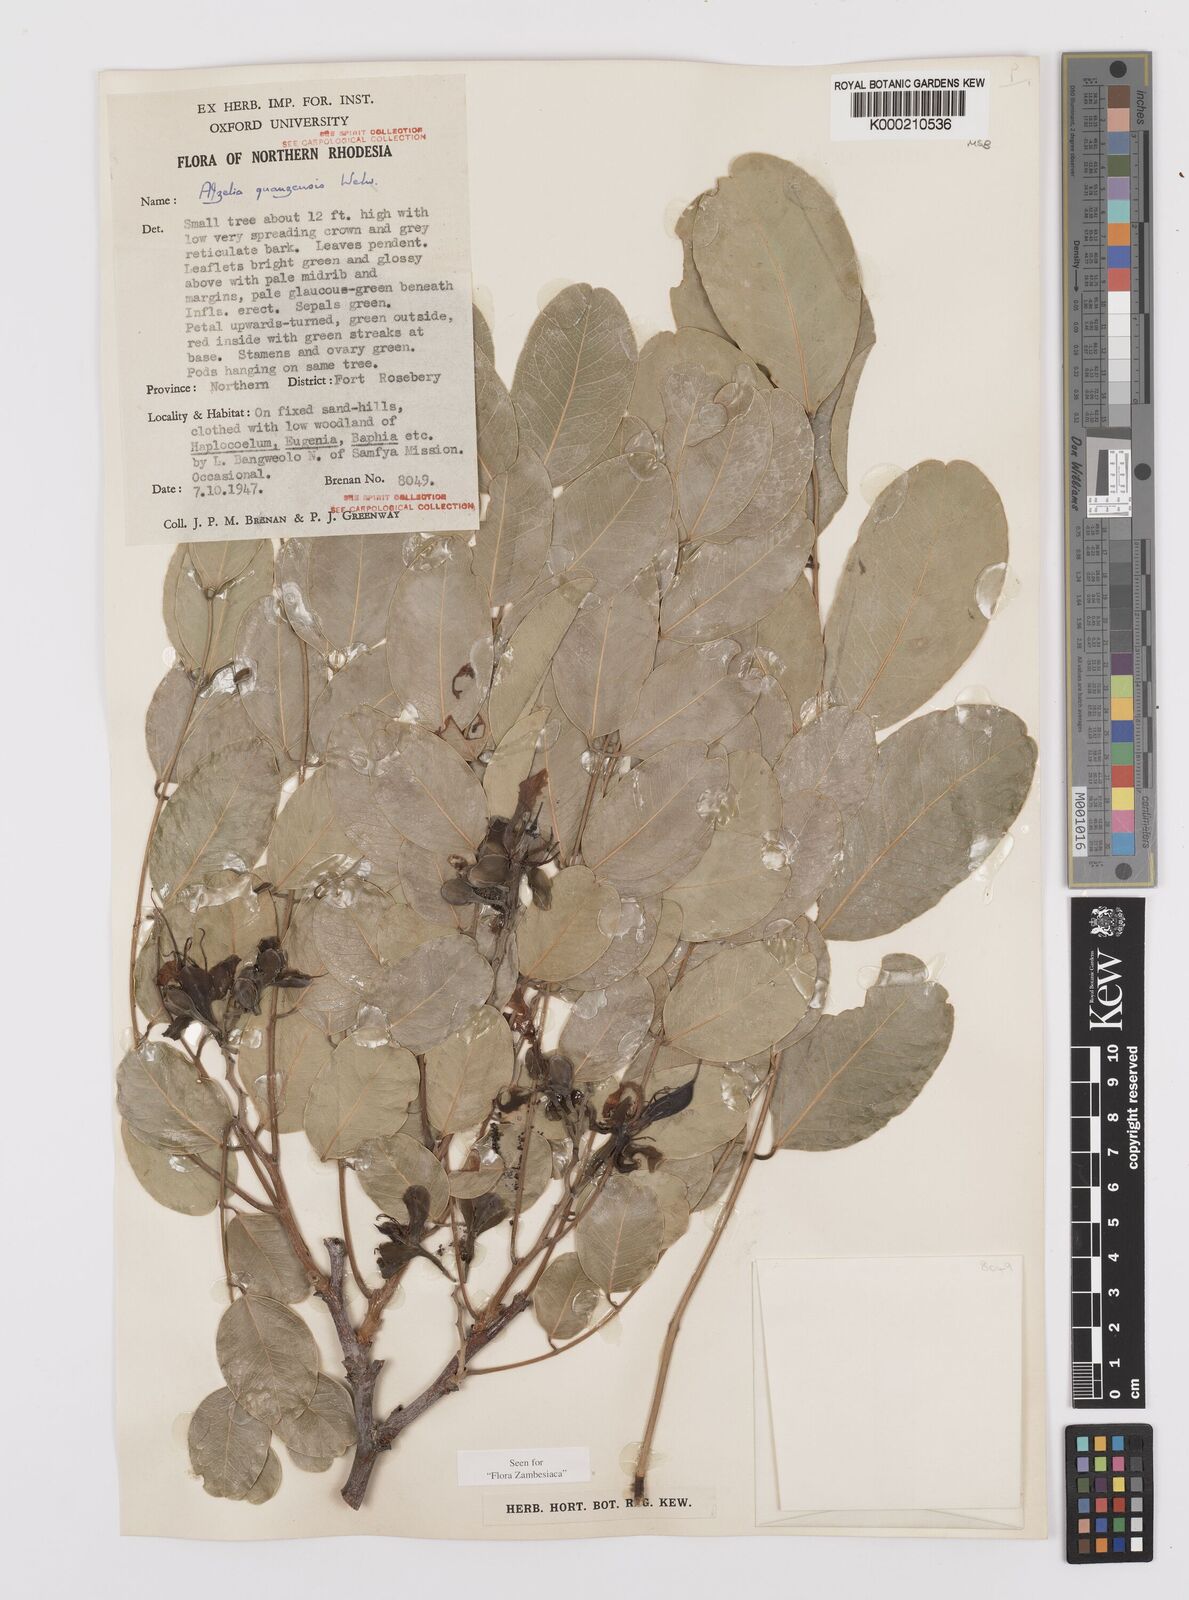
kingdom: Plantae
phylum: Tracheophyta
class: Magnoliopsida
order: Fabales
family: Fabaceae
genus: Afzelia
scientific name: Afzelia quanzensis
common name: Pod mahogany
